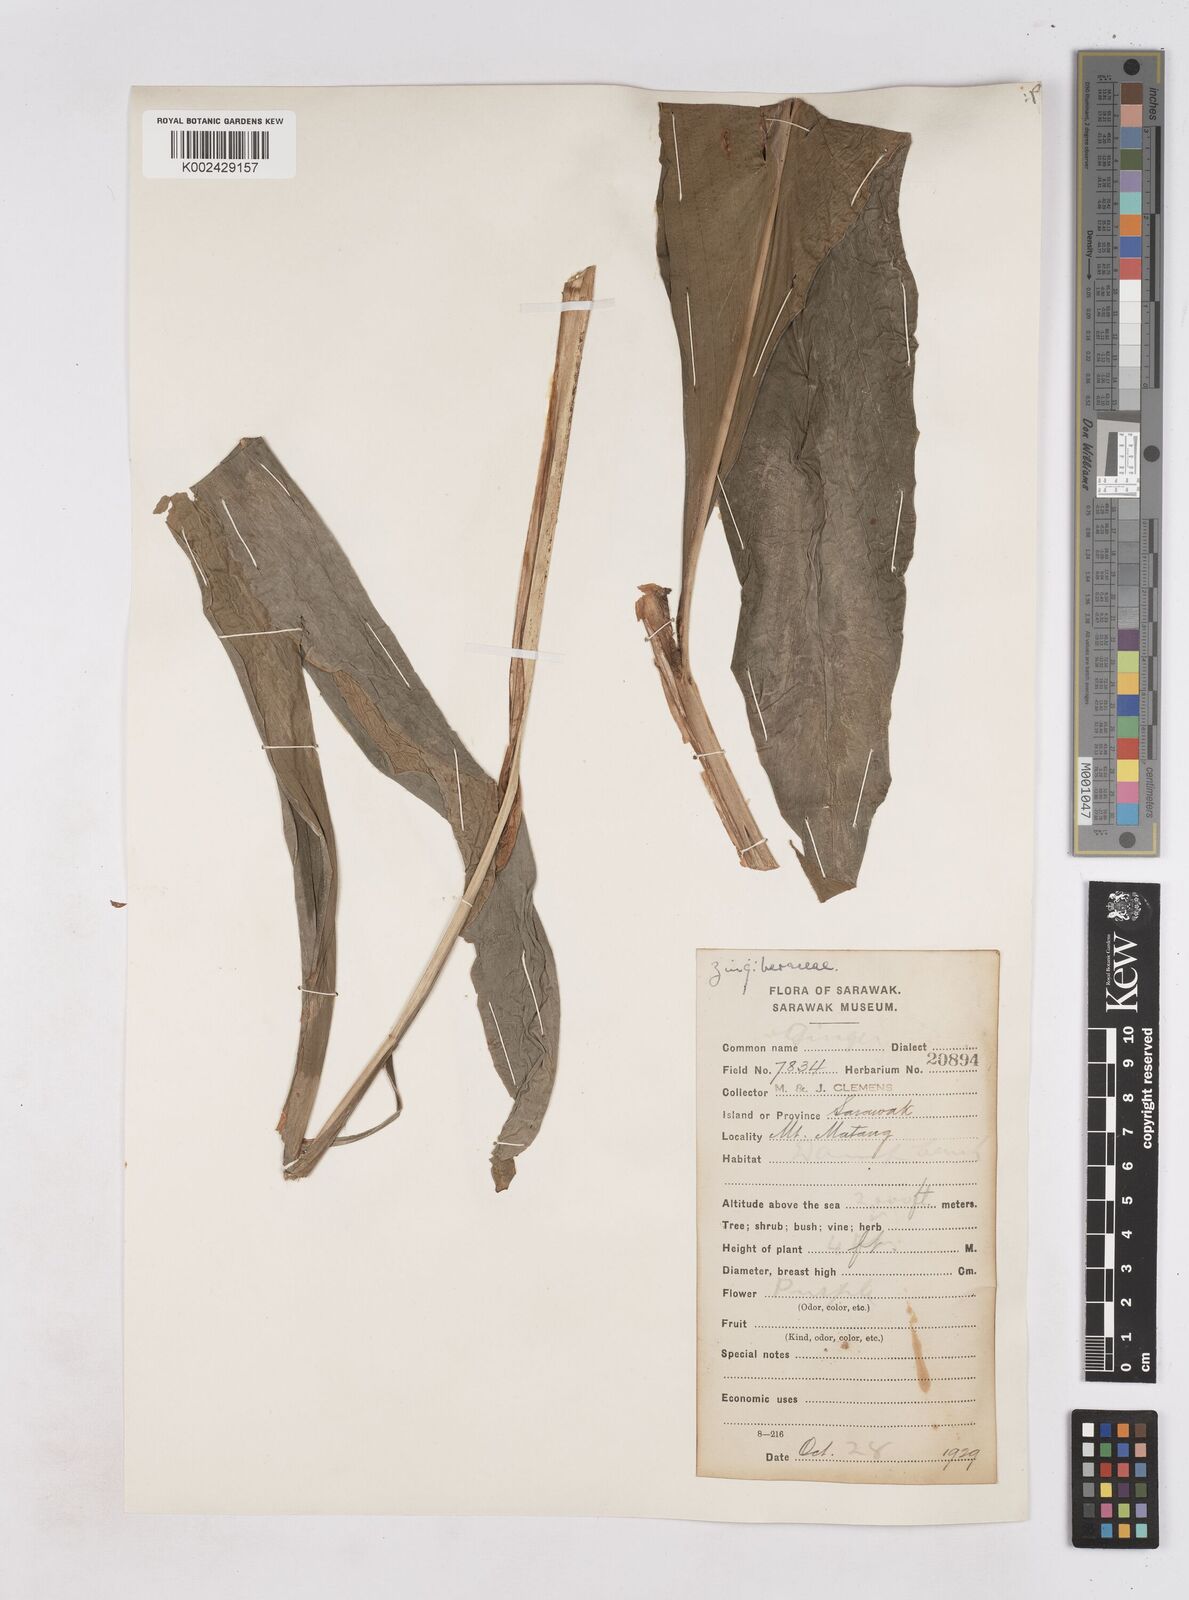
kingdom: Plantae
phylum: Tracheophyta
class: Liliopsida
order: Zingiberales
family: Zingiberaceae
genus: Zingiber
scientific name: Zingiber
